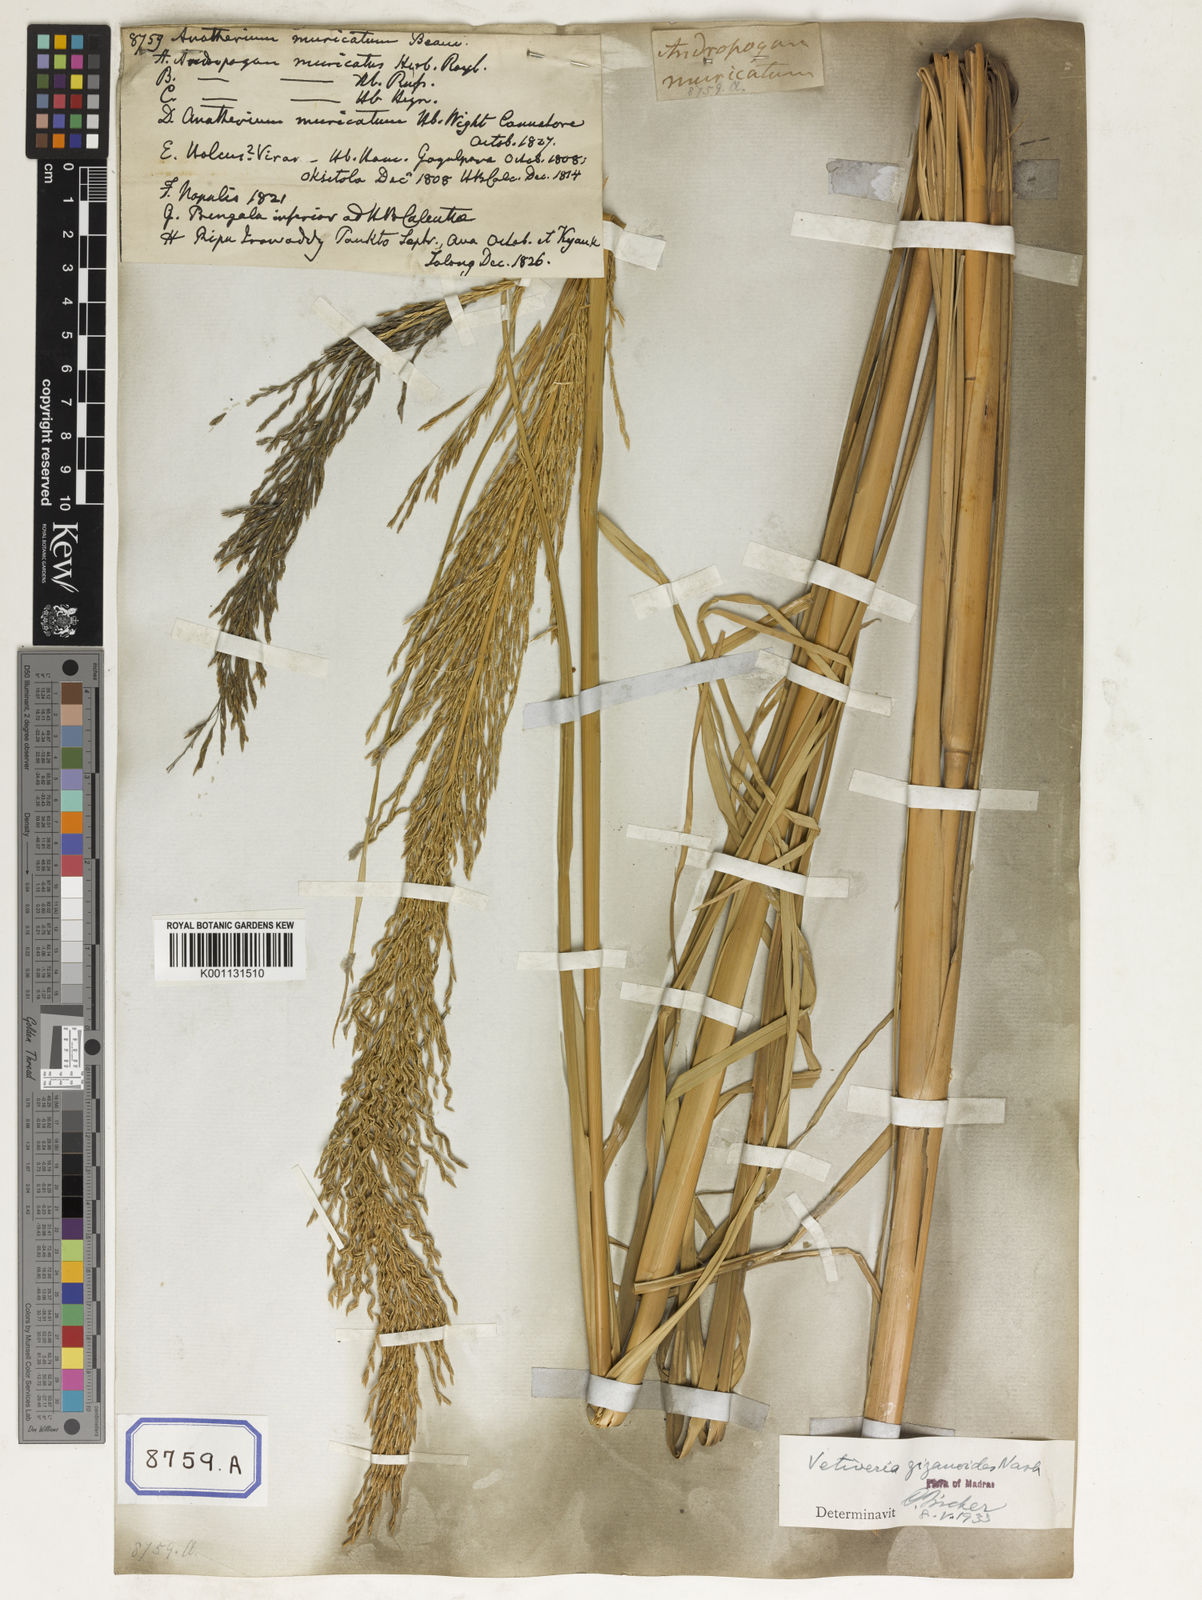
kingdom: Plantae
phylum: Tracheophyta
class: Liliopsida
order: Poales
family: Poaceae
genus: Chrysopogon
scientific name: Chrysopogon zizanioides
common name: False beardgrass
